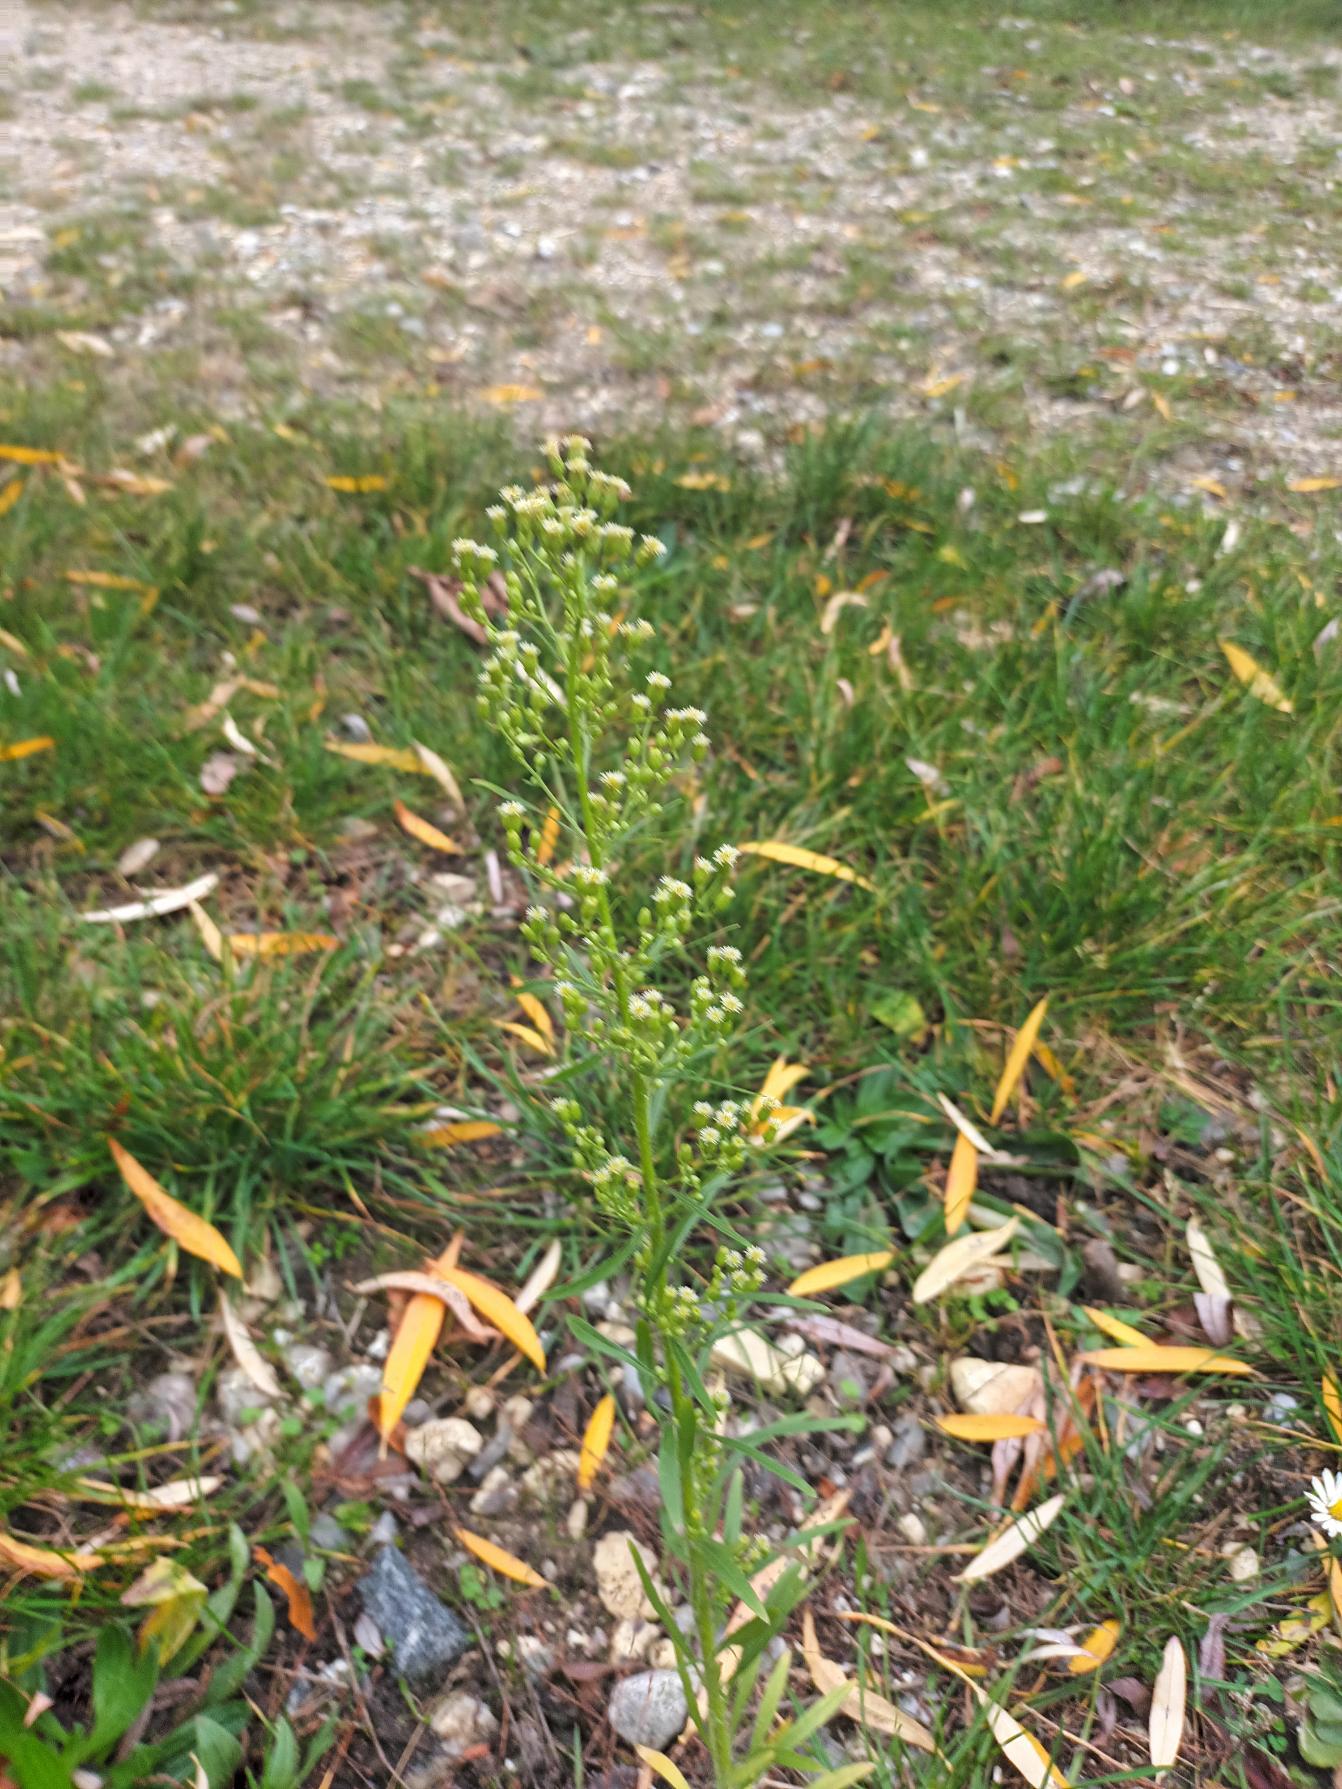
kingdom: Plantae
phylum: Tracheophyta
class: Magnoliopsida
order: Asterales
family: Asteraceae
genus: Erigeron
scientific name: Erigeron canadensis
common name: Kanadisk bakkestjerne
